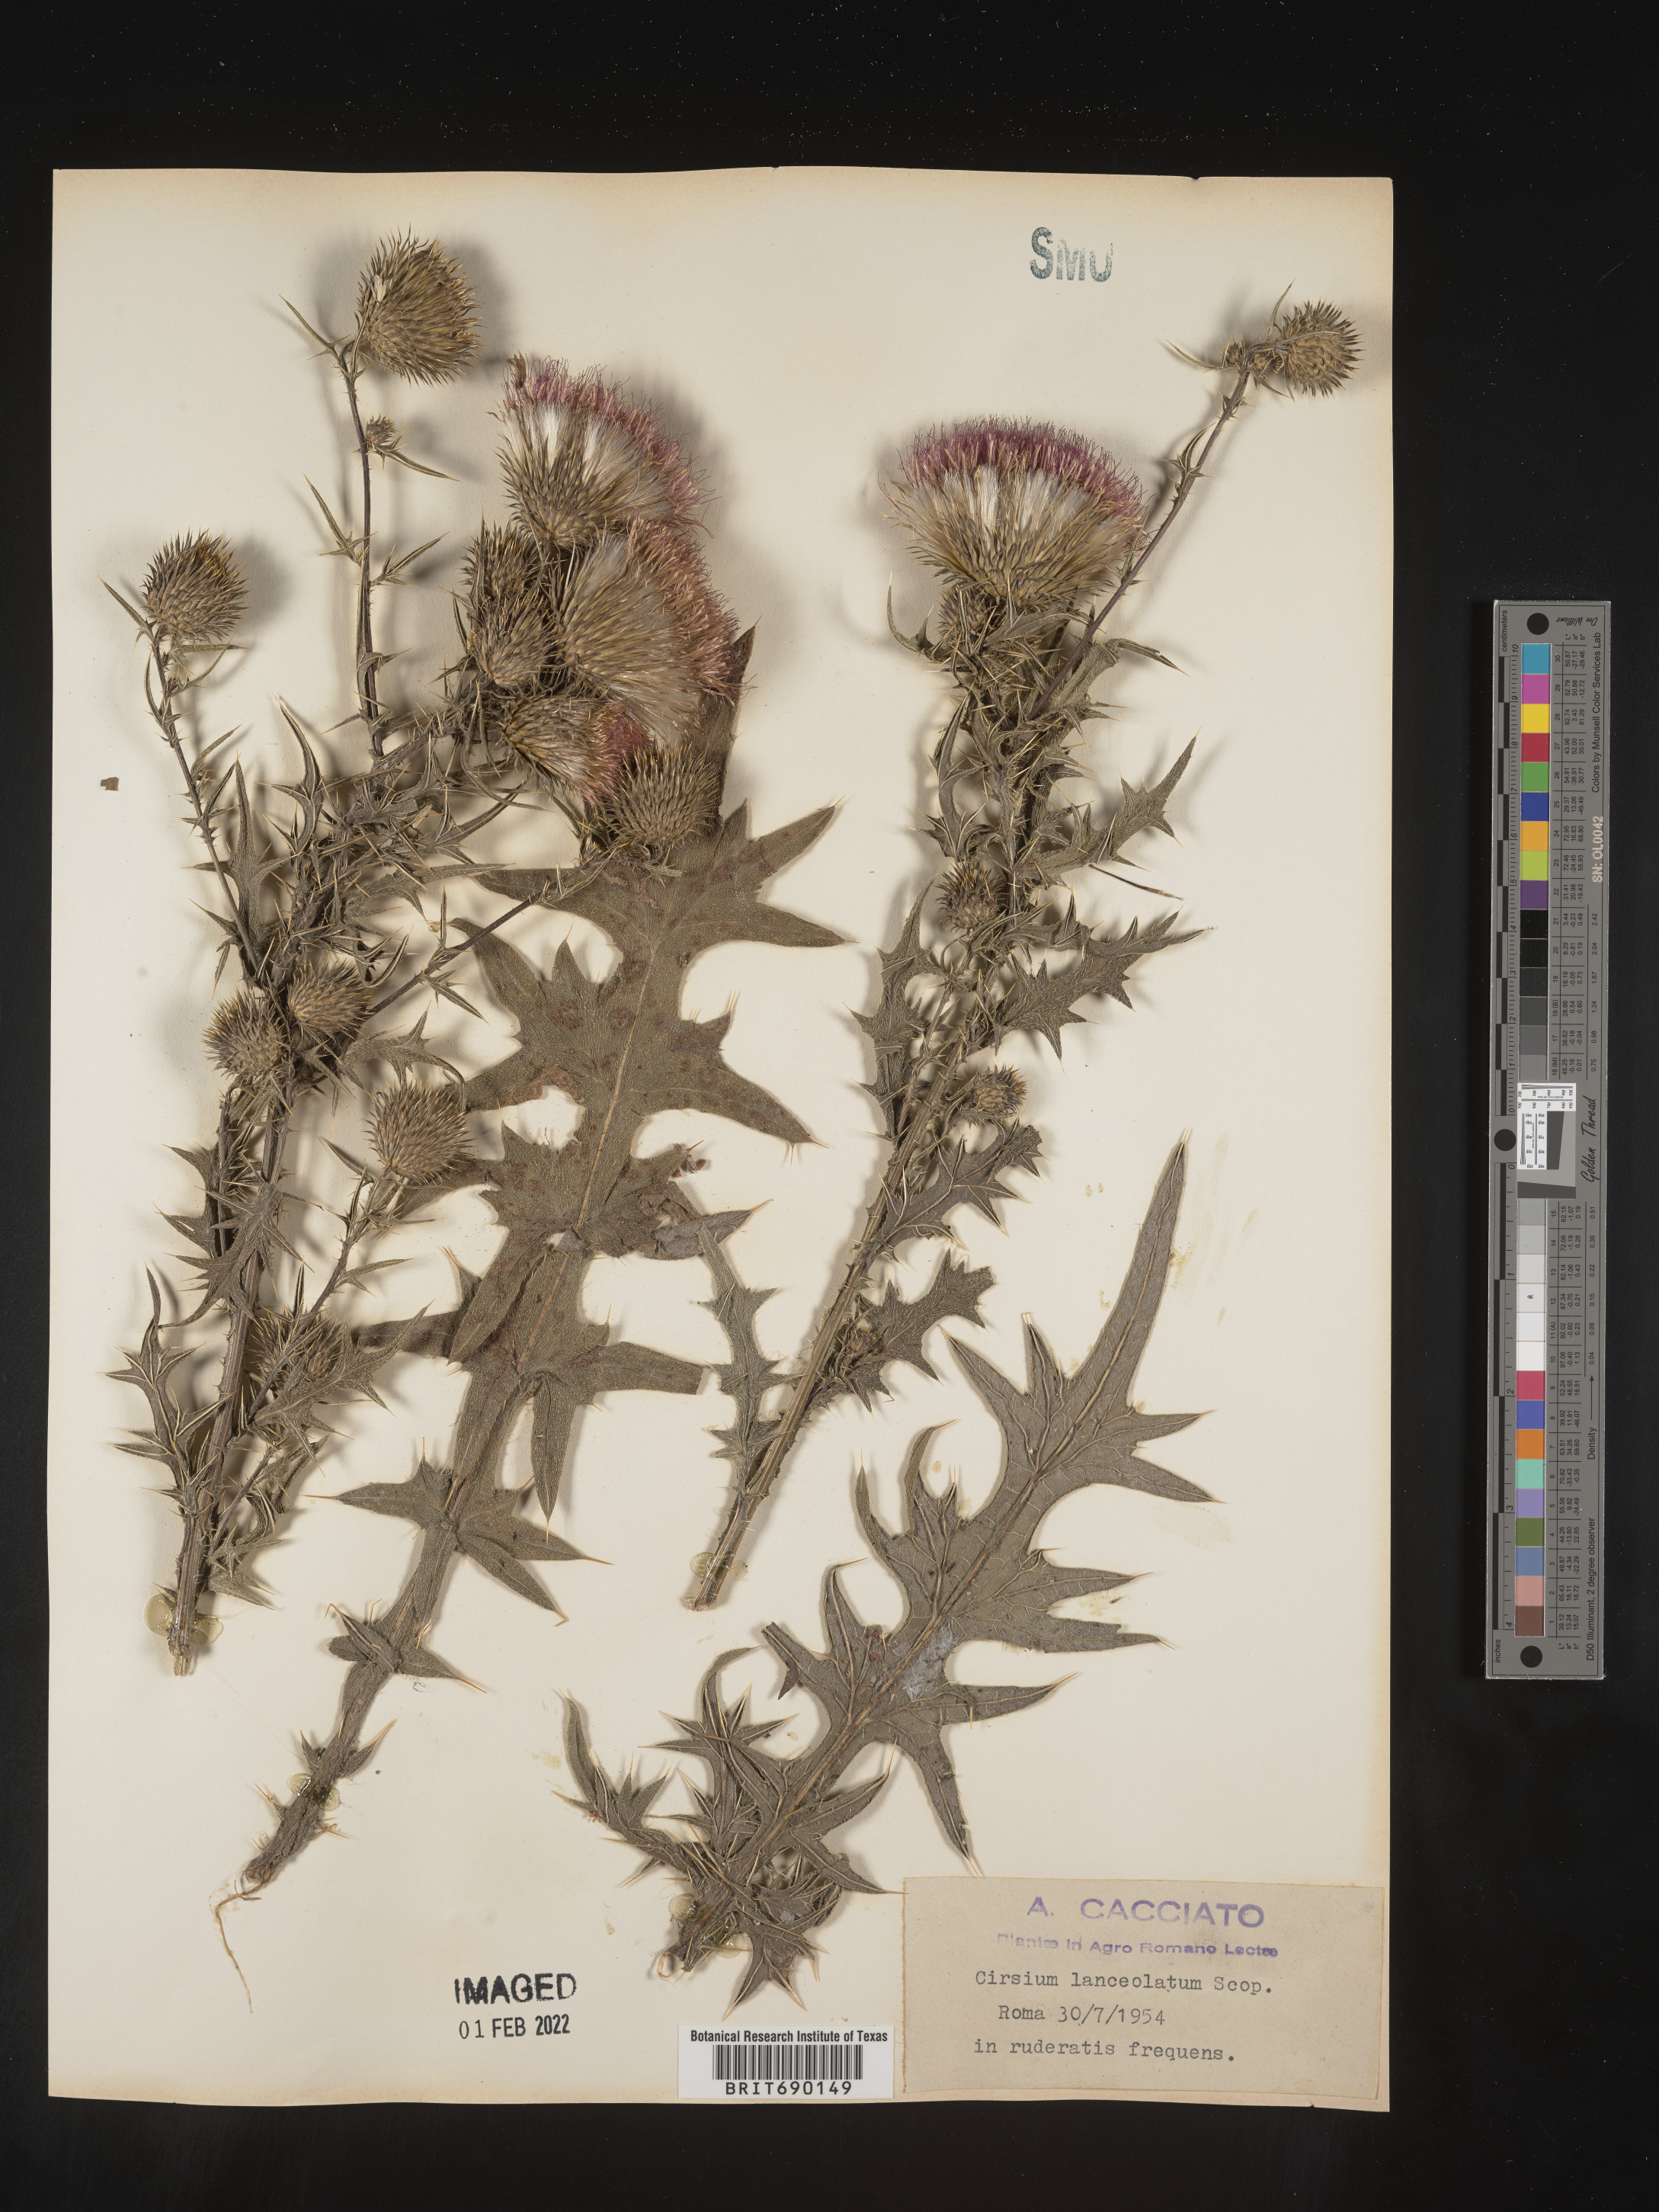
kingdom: Plantae
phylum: Tracheophyta
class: Magnoliopsida
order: Asterales
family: Asteraceae
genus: Cirsium
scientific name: Cirsium
